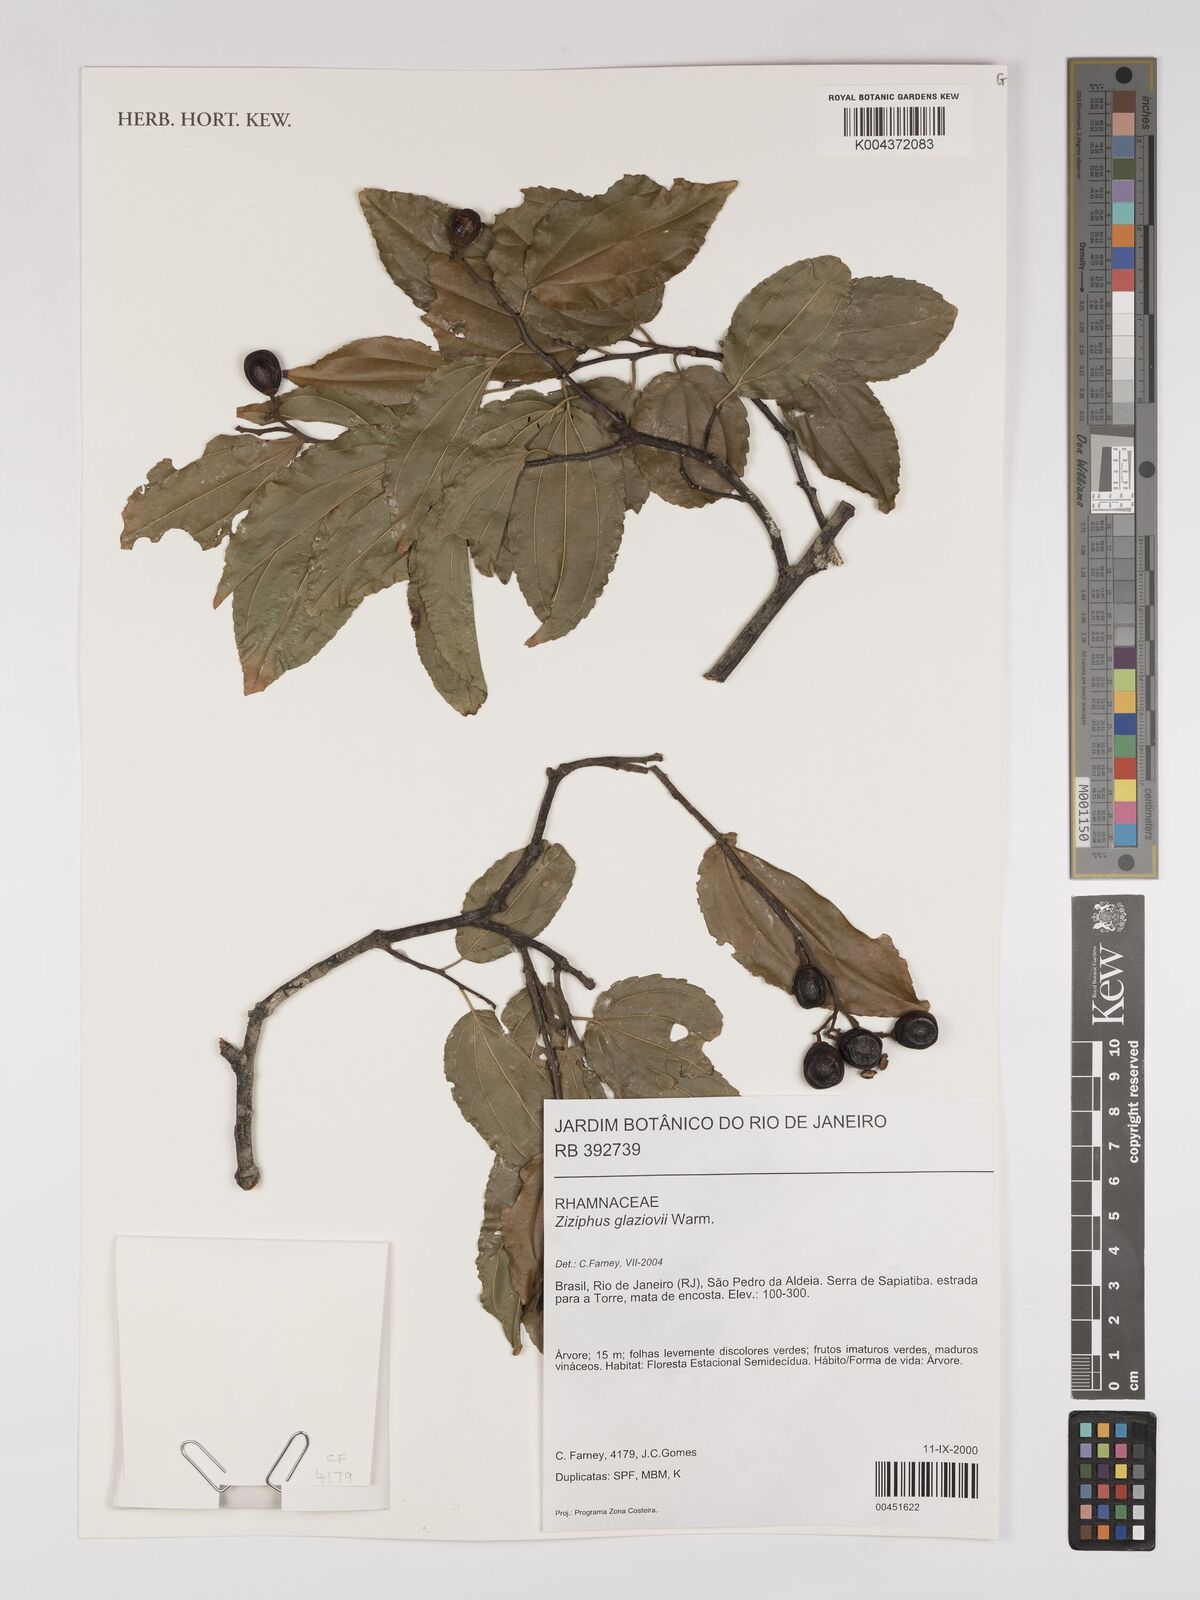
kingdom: Plantae
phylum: Tracheophyta
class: Magnoliopsida
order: Rosales
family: Rhamnaceae
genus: Sarcomphalus
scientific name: Sarcomphalus glaziovii
